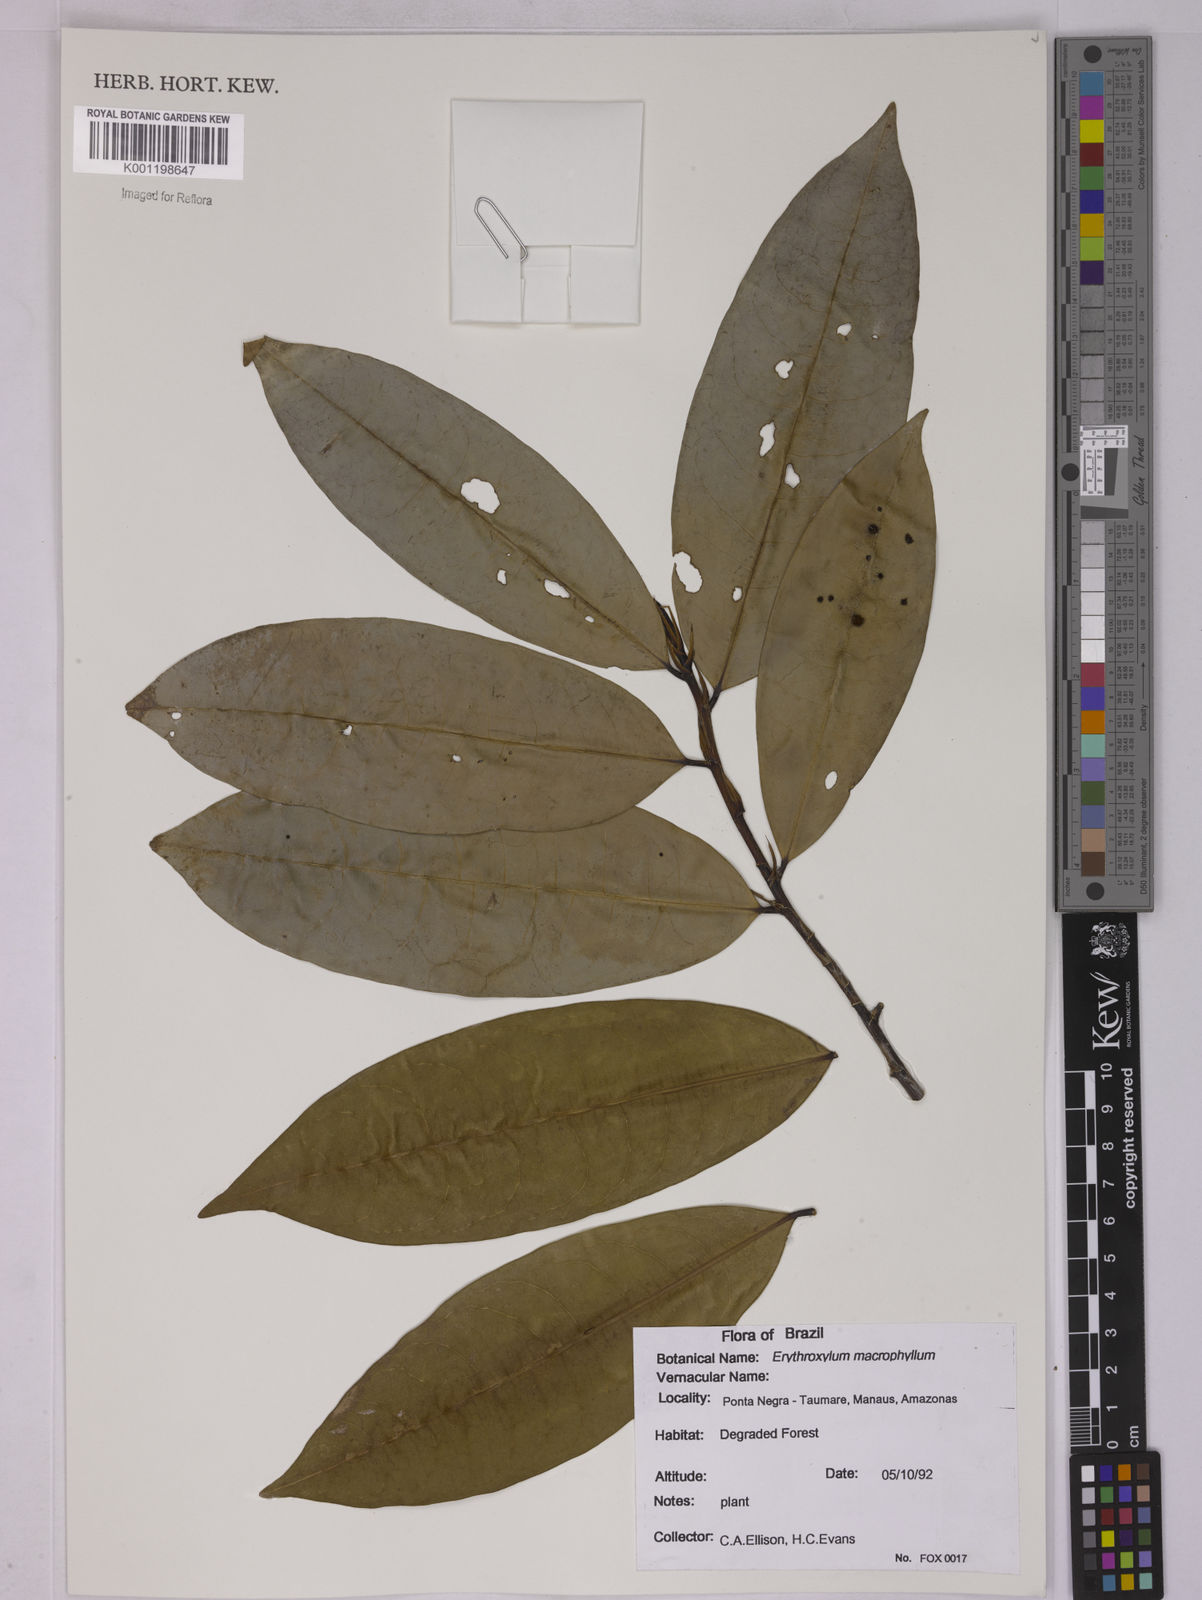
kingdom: Plantae
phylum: Tracheophyta
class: Magnoliopsida
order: Malpighiales
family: Erythroxylaceae
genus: Erythroxylum
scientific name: Erythroxylum macrophyllum
